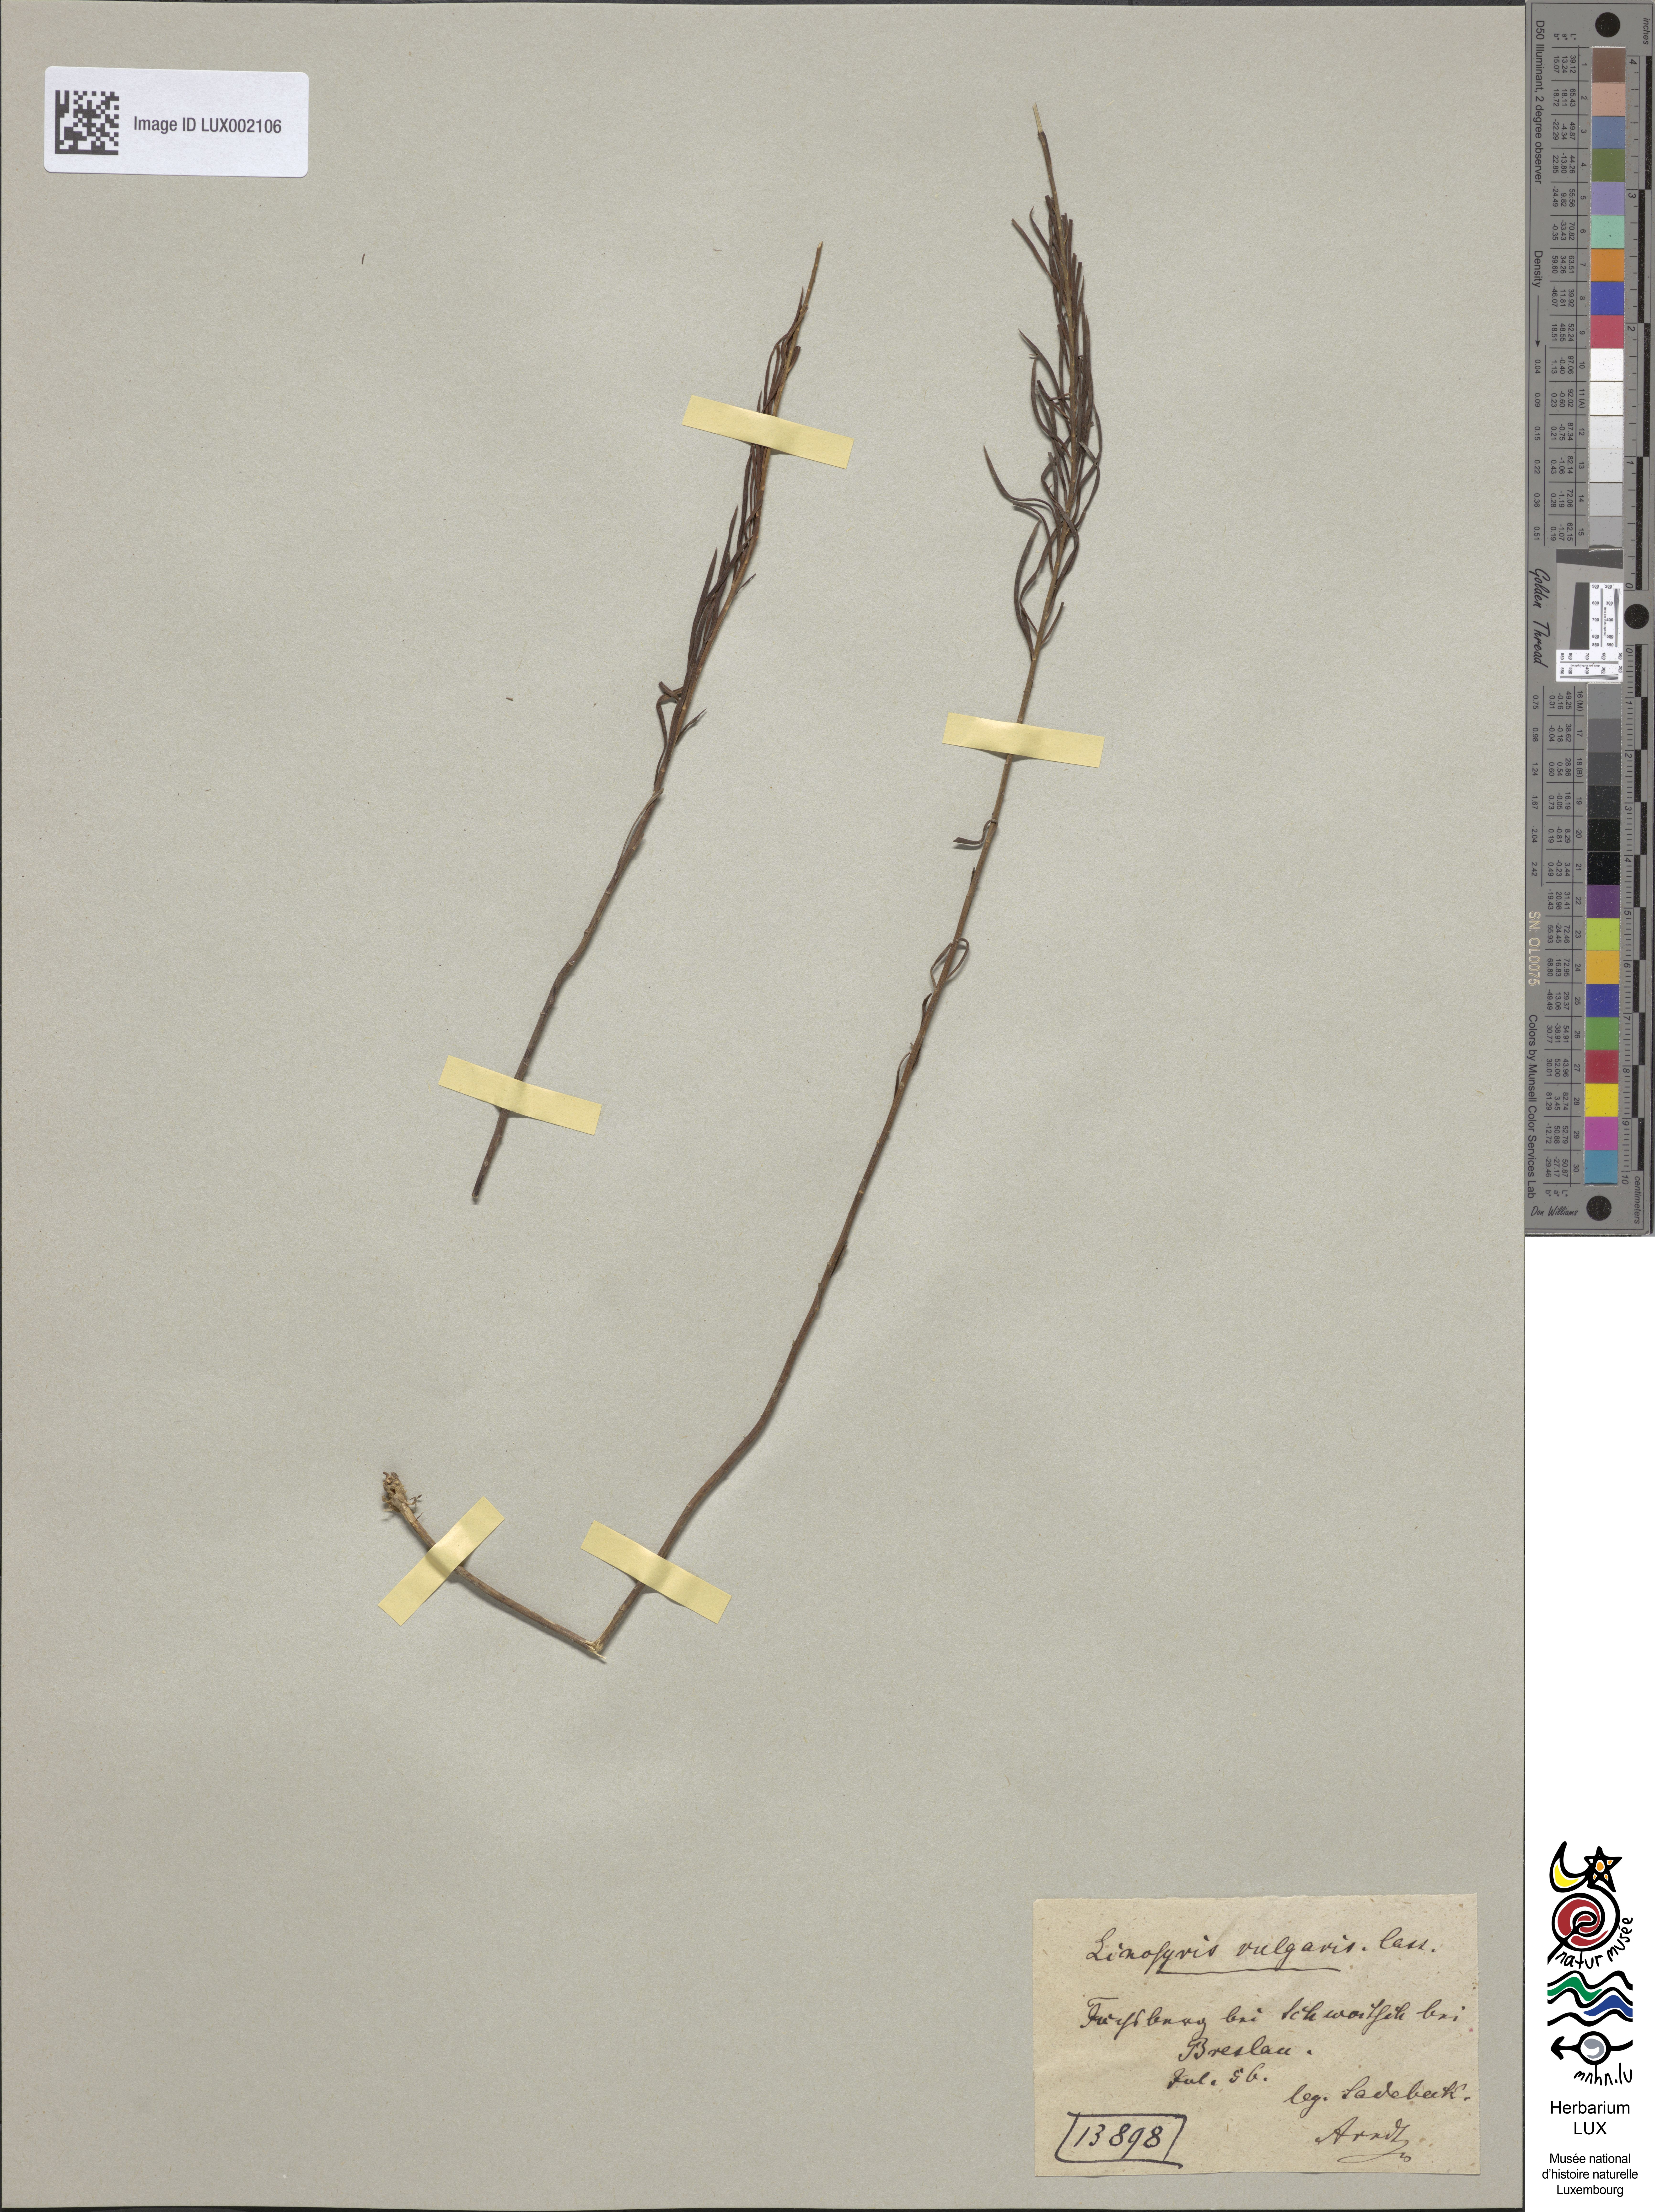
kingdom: Plantae
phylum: Tracheophyta
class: Magnoliopsida
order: Asterales
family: Asteraceae
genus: Galatella
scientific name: Galatella linosyris
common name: Goldilocks aster
